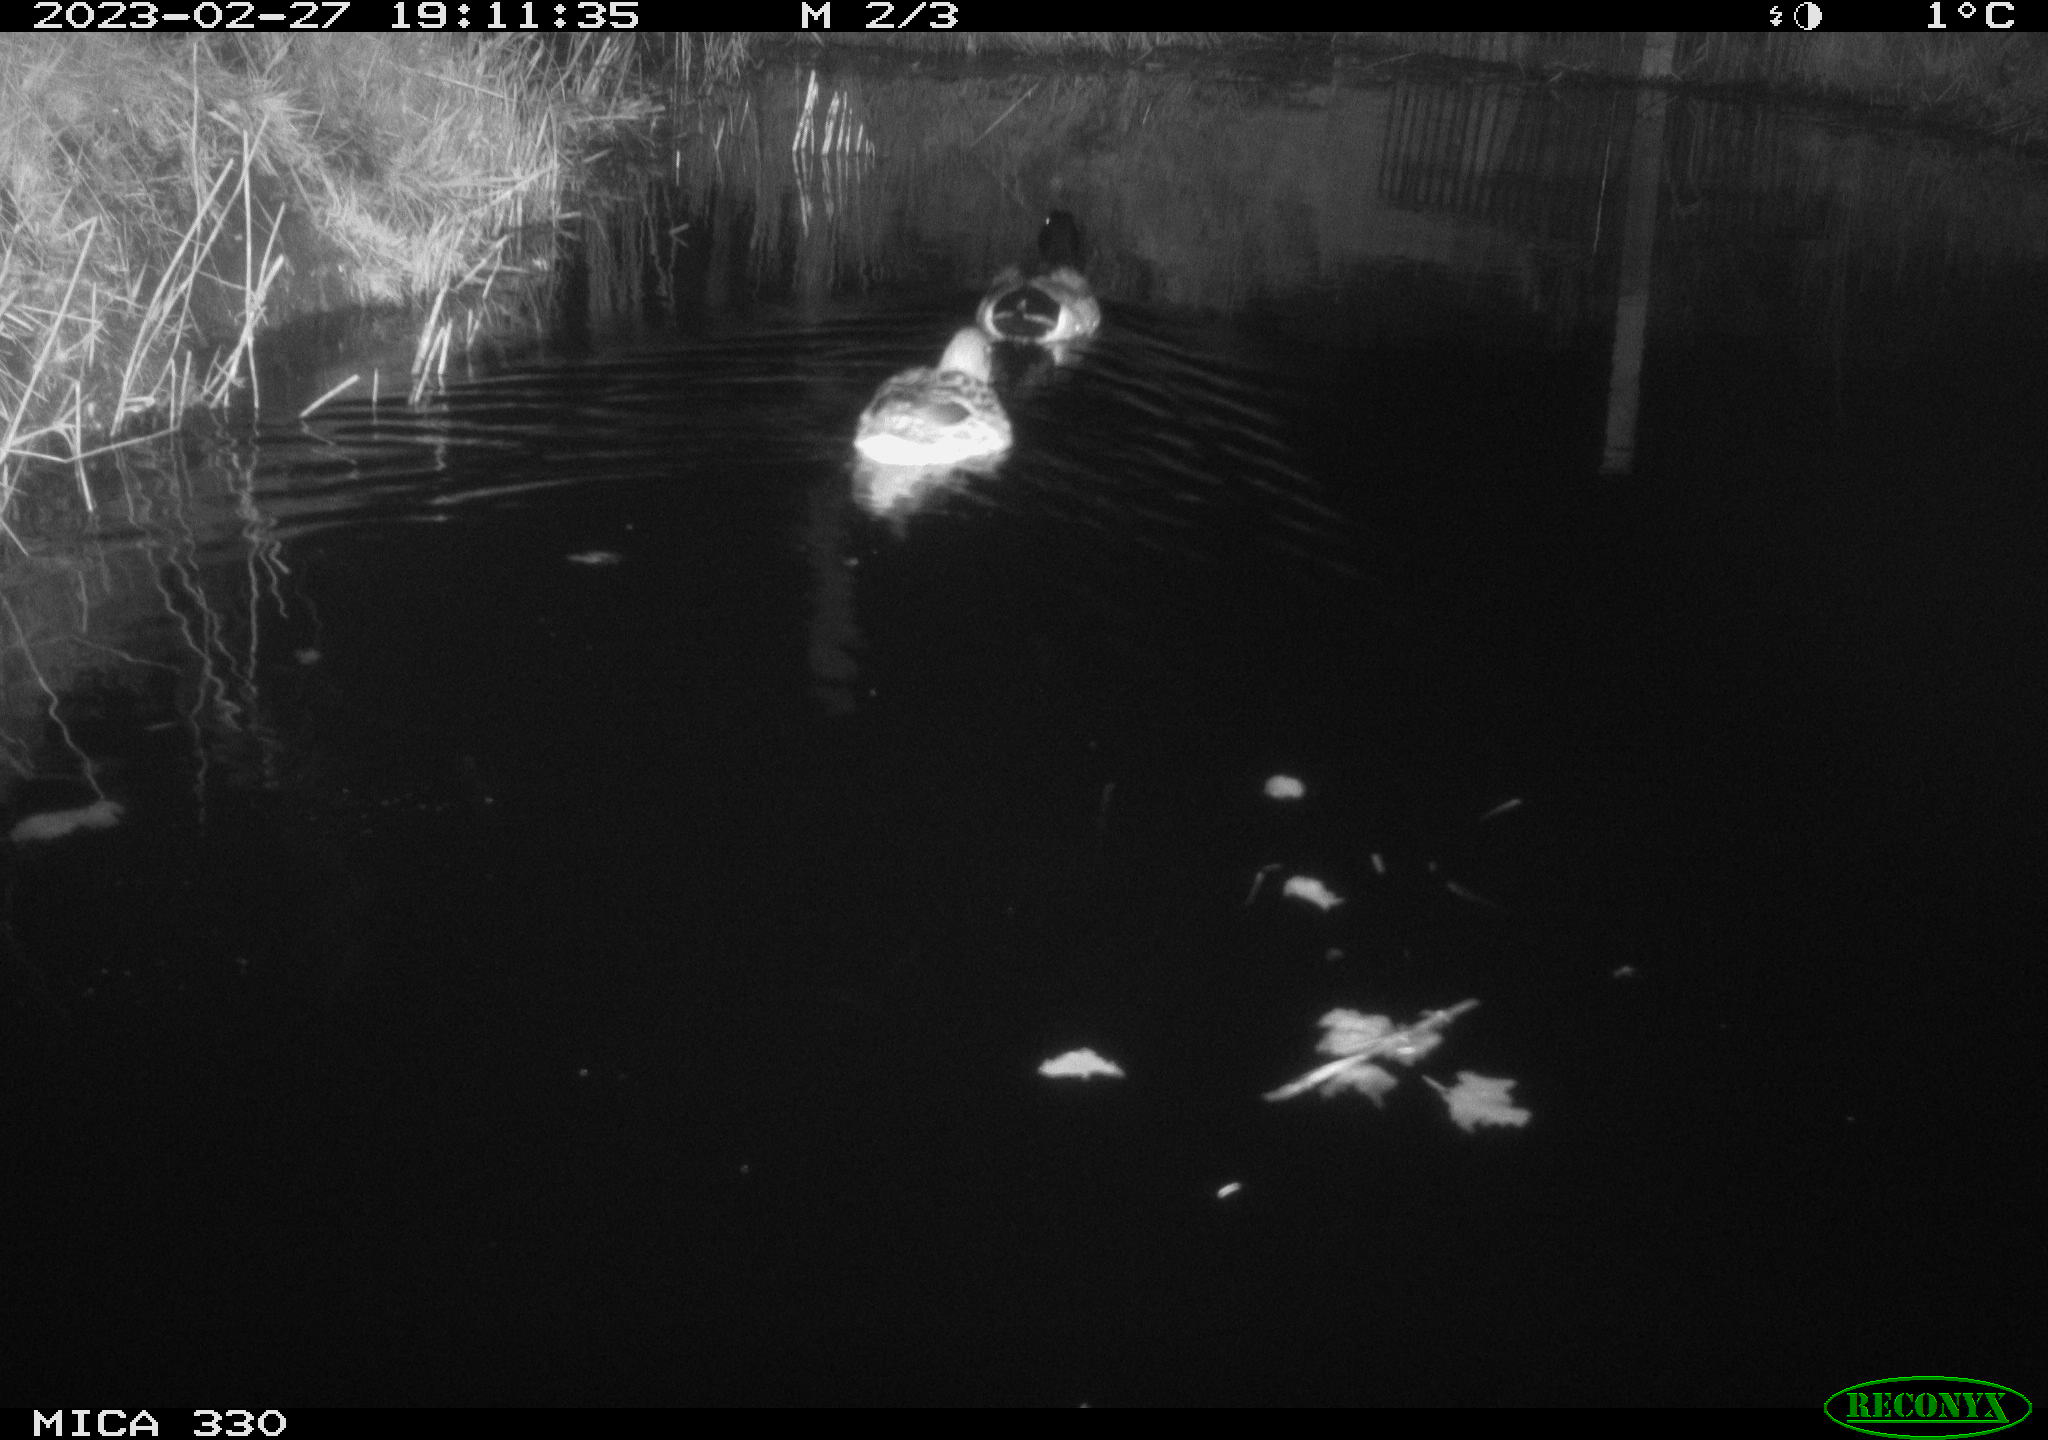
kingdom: Animalia
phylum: Chordata
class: Aves
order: Anseriformes
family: Anatidae
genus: Anas
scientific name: Anas
